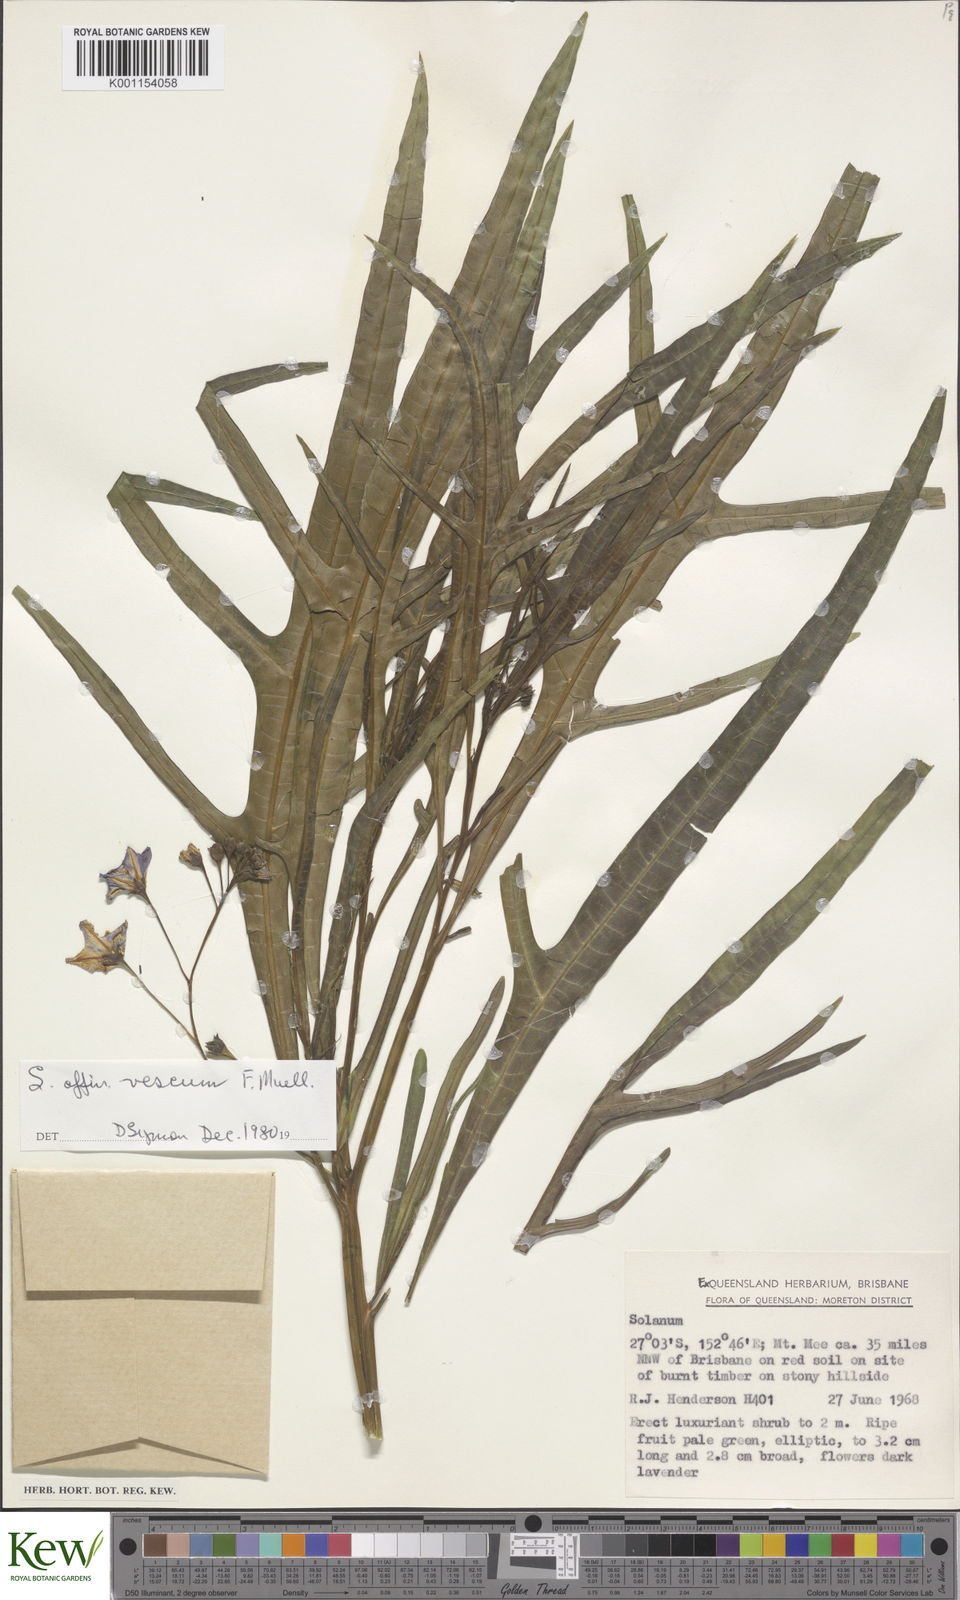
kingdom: Plantae
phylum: Tracheophyta
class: Magnoliopsida
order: Solanales
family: Solanaceae
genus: Solanum
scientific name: Solanum vescum
